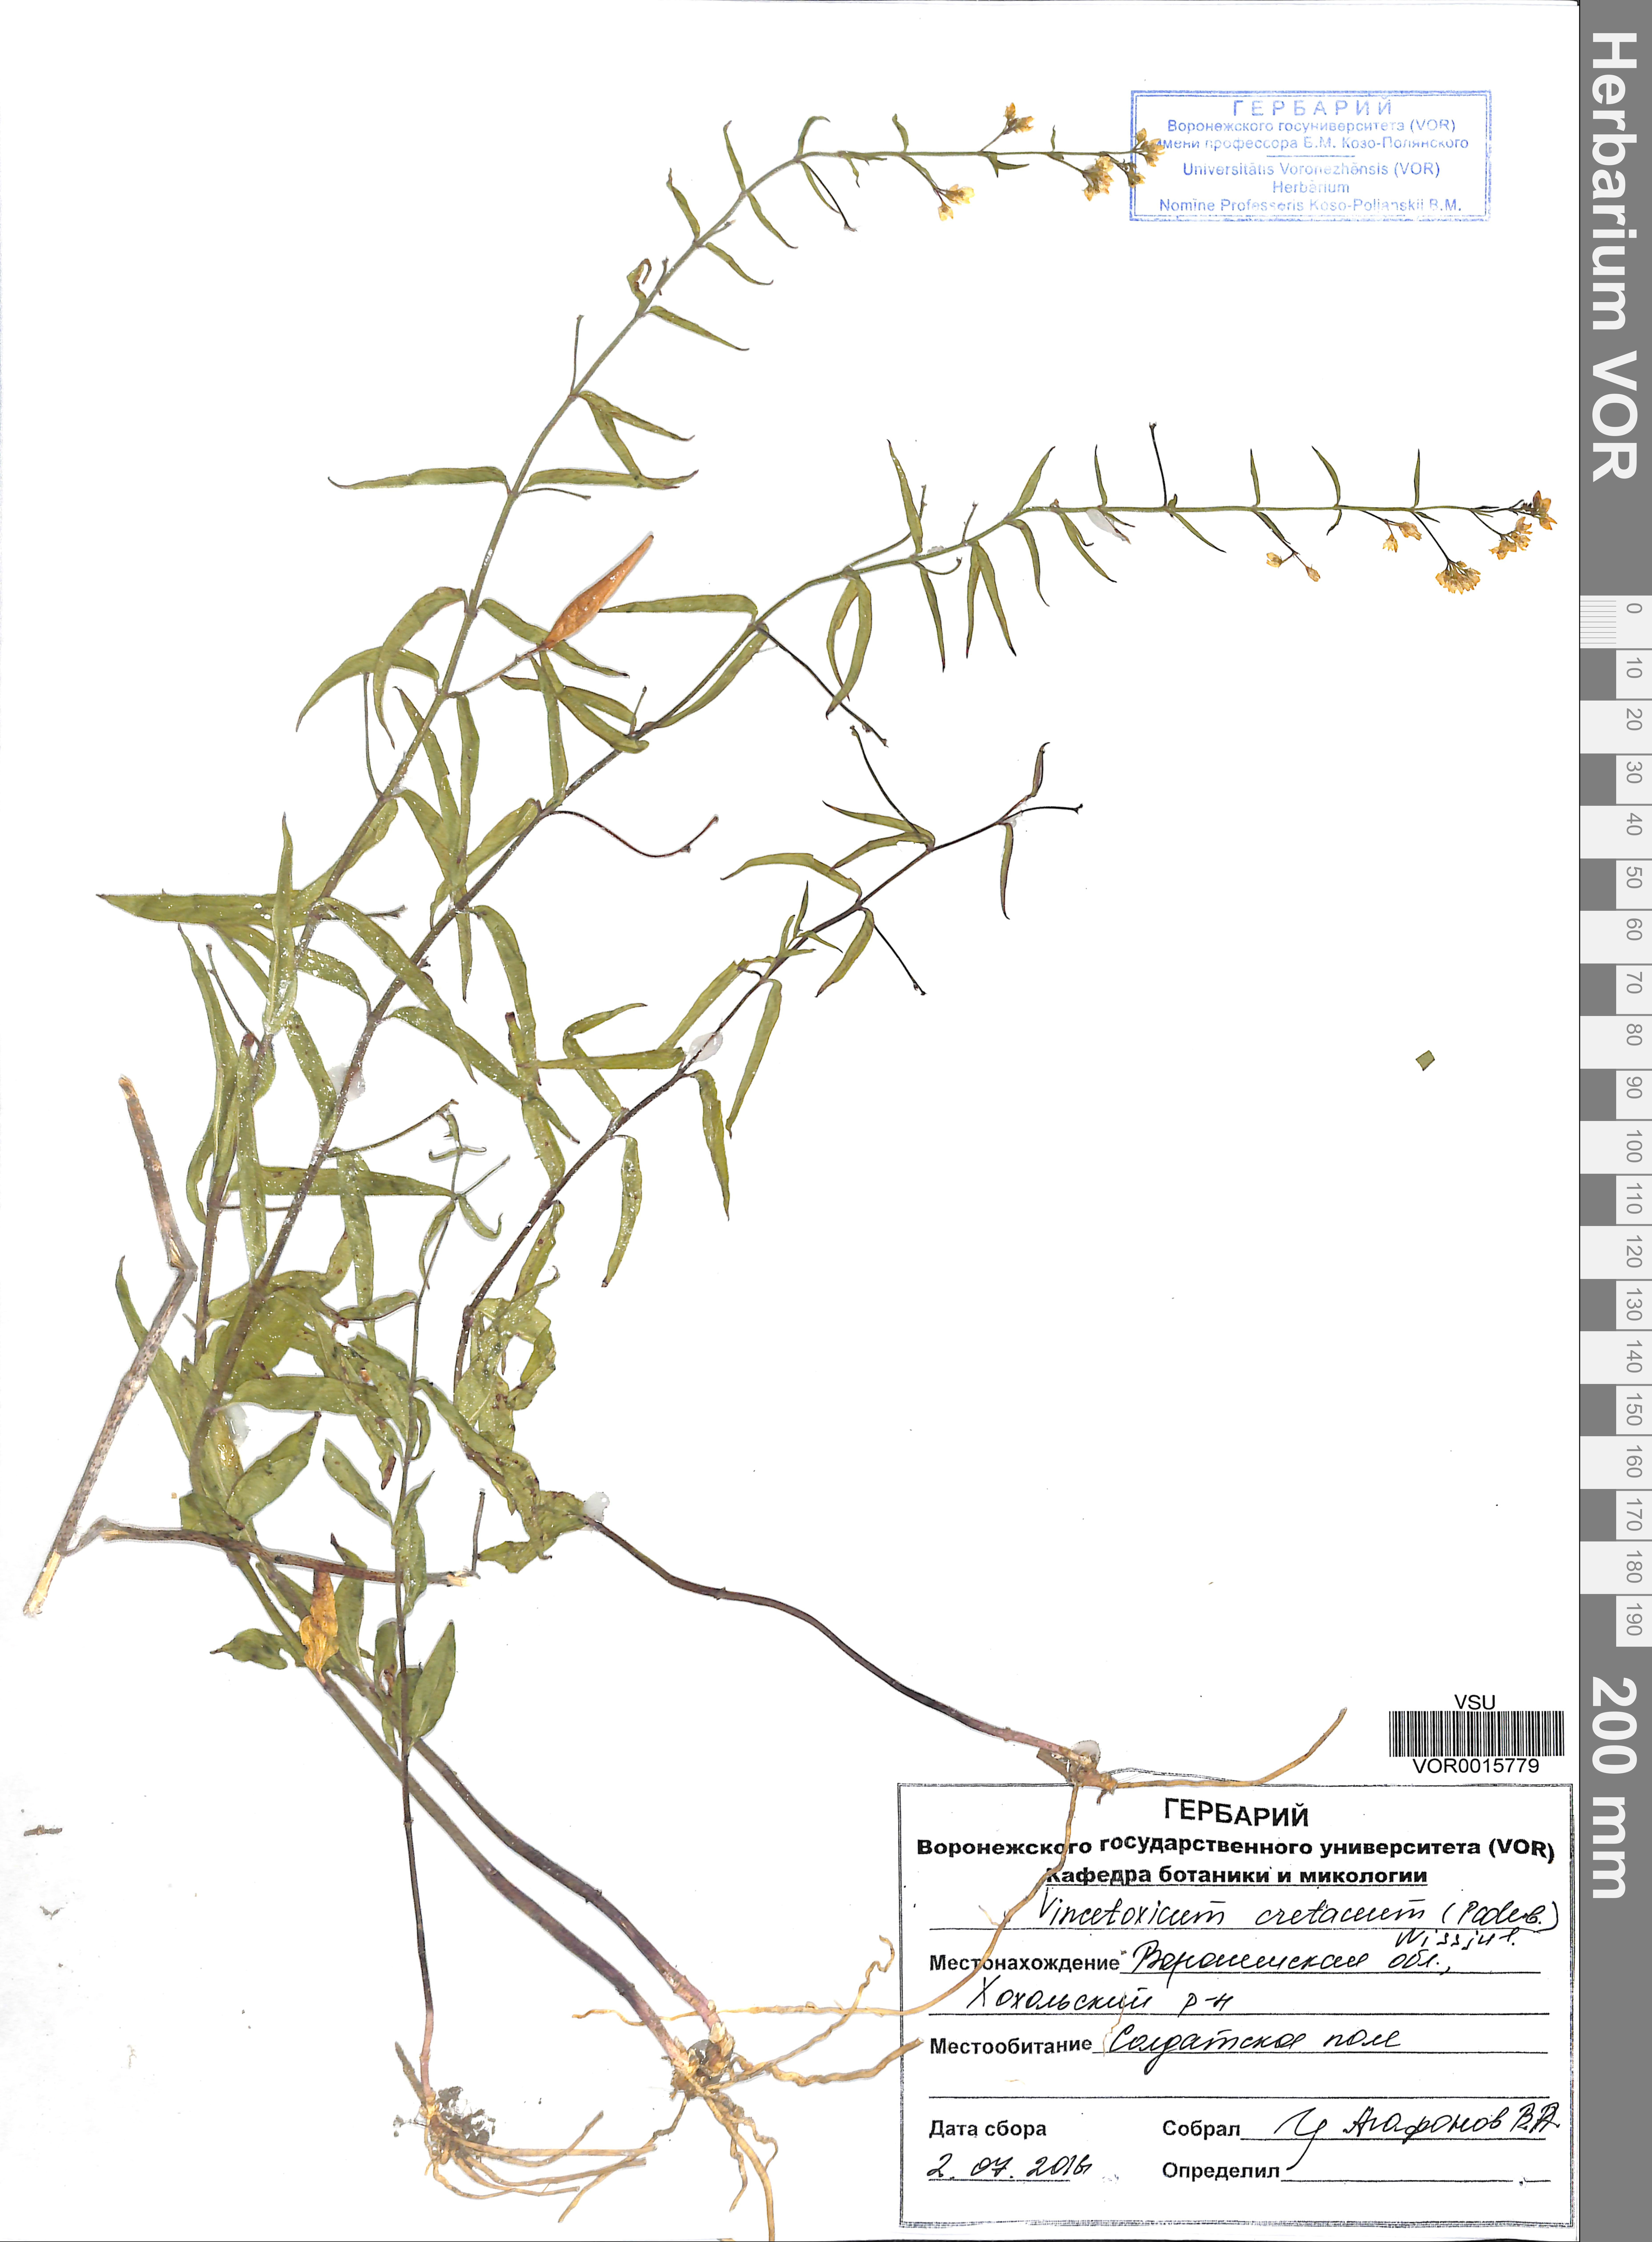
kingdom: Plantae
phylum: Tracheophyta
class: Magnoliopsida
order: Gentianales
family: Apocynaceae
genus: Vincetoxicum
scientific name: Vincetoxicum hirundinaria
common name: White swallowwort
